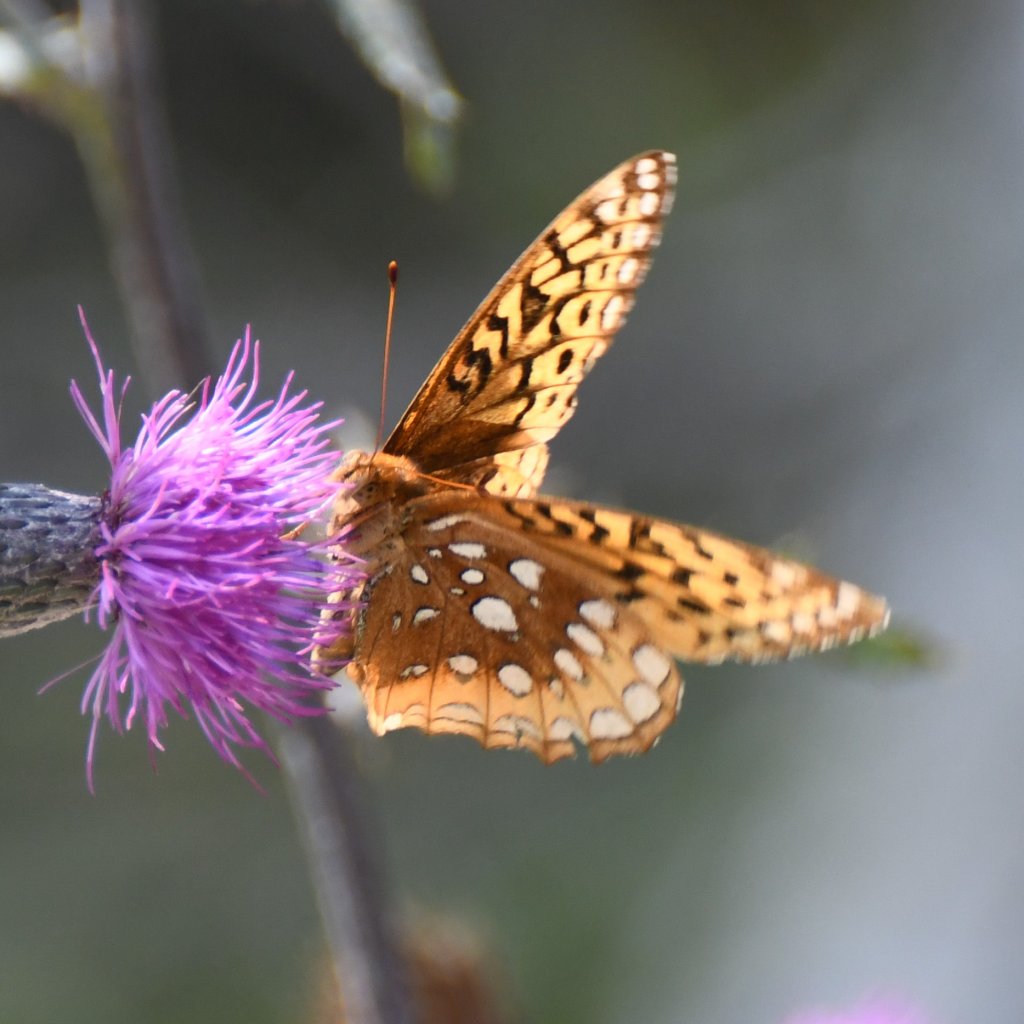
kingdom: Animalia
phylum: Arthropoda
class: Insecta
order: Lepidoptera
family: Nymphalidae
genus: Speyeria
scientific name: Speyeria cybele
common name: Great Spangled Fritillary
